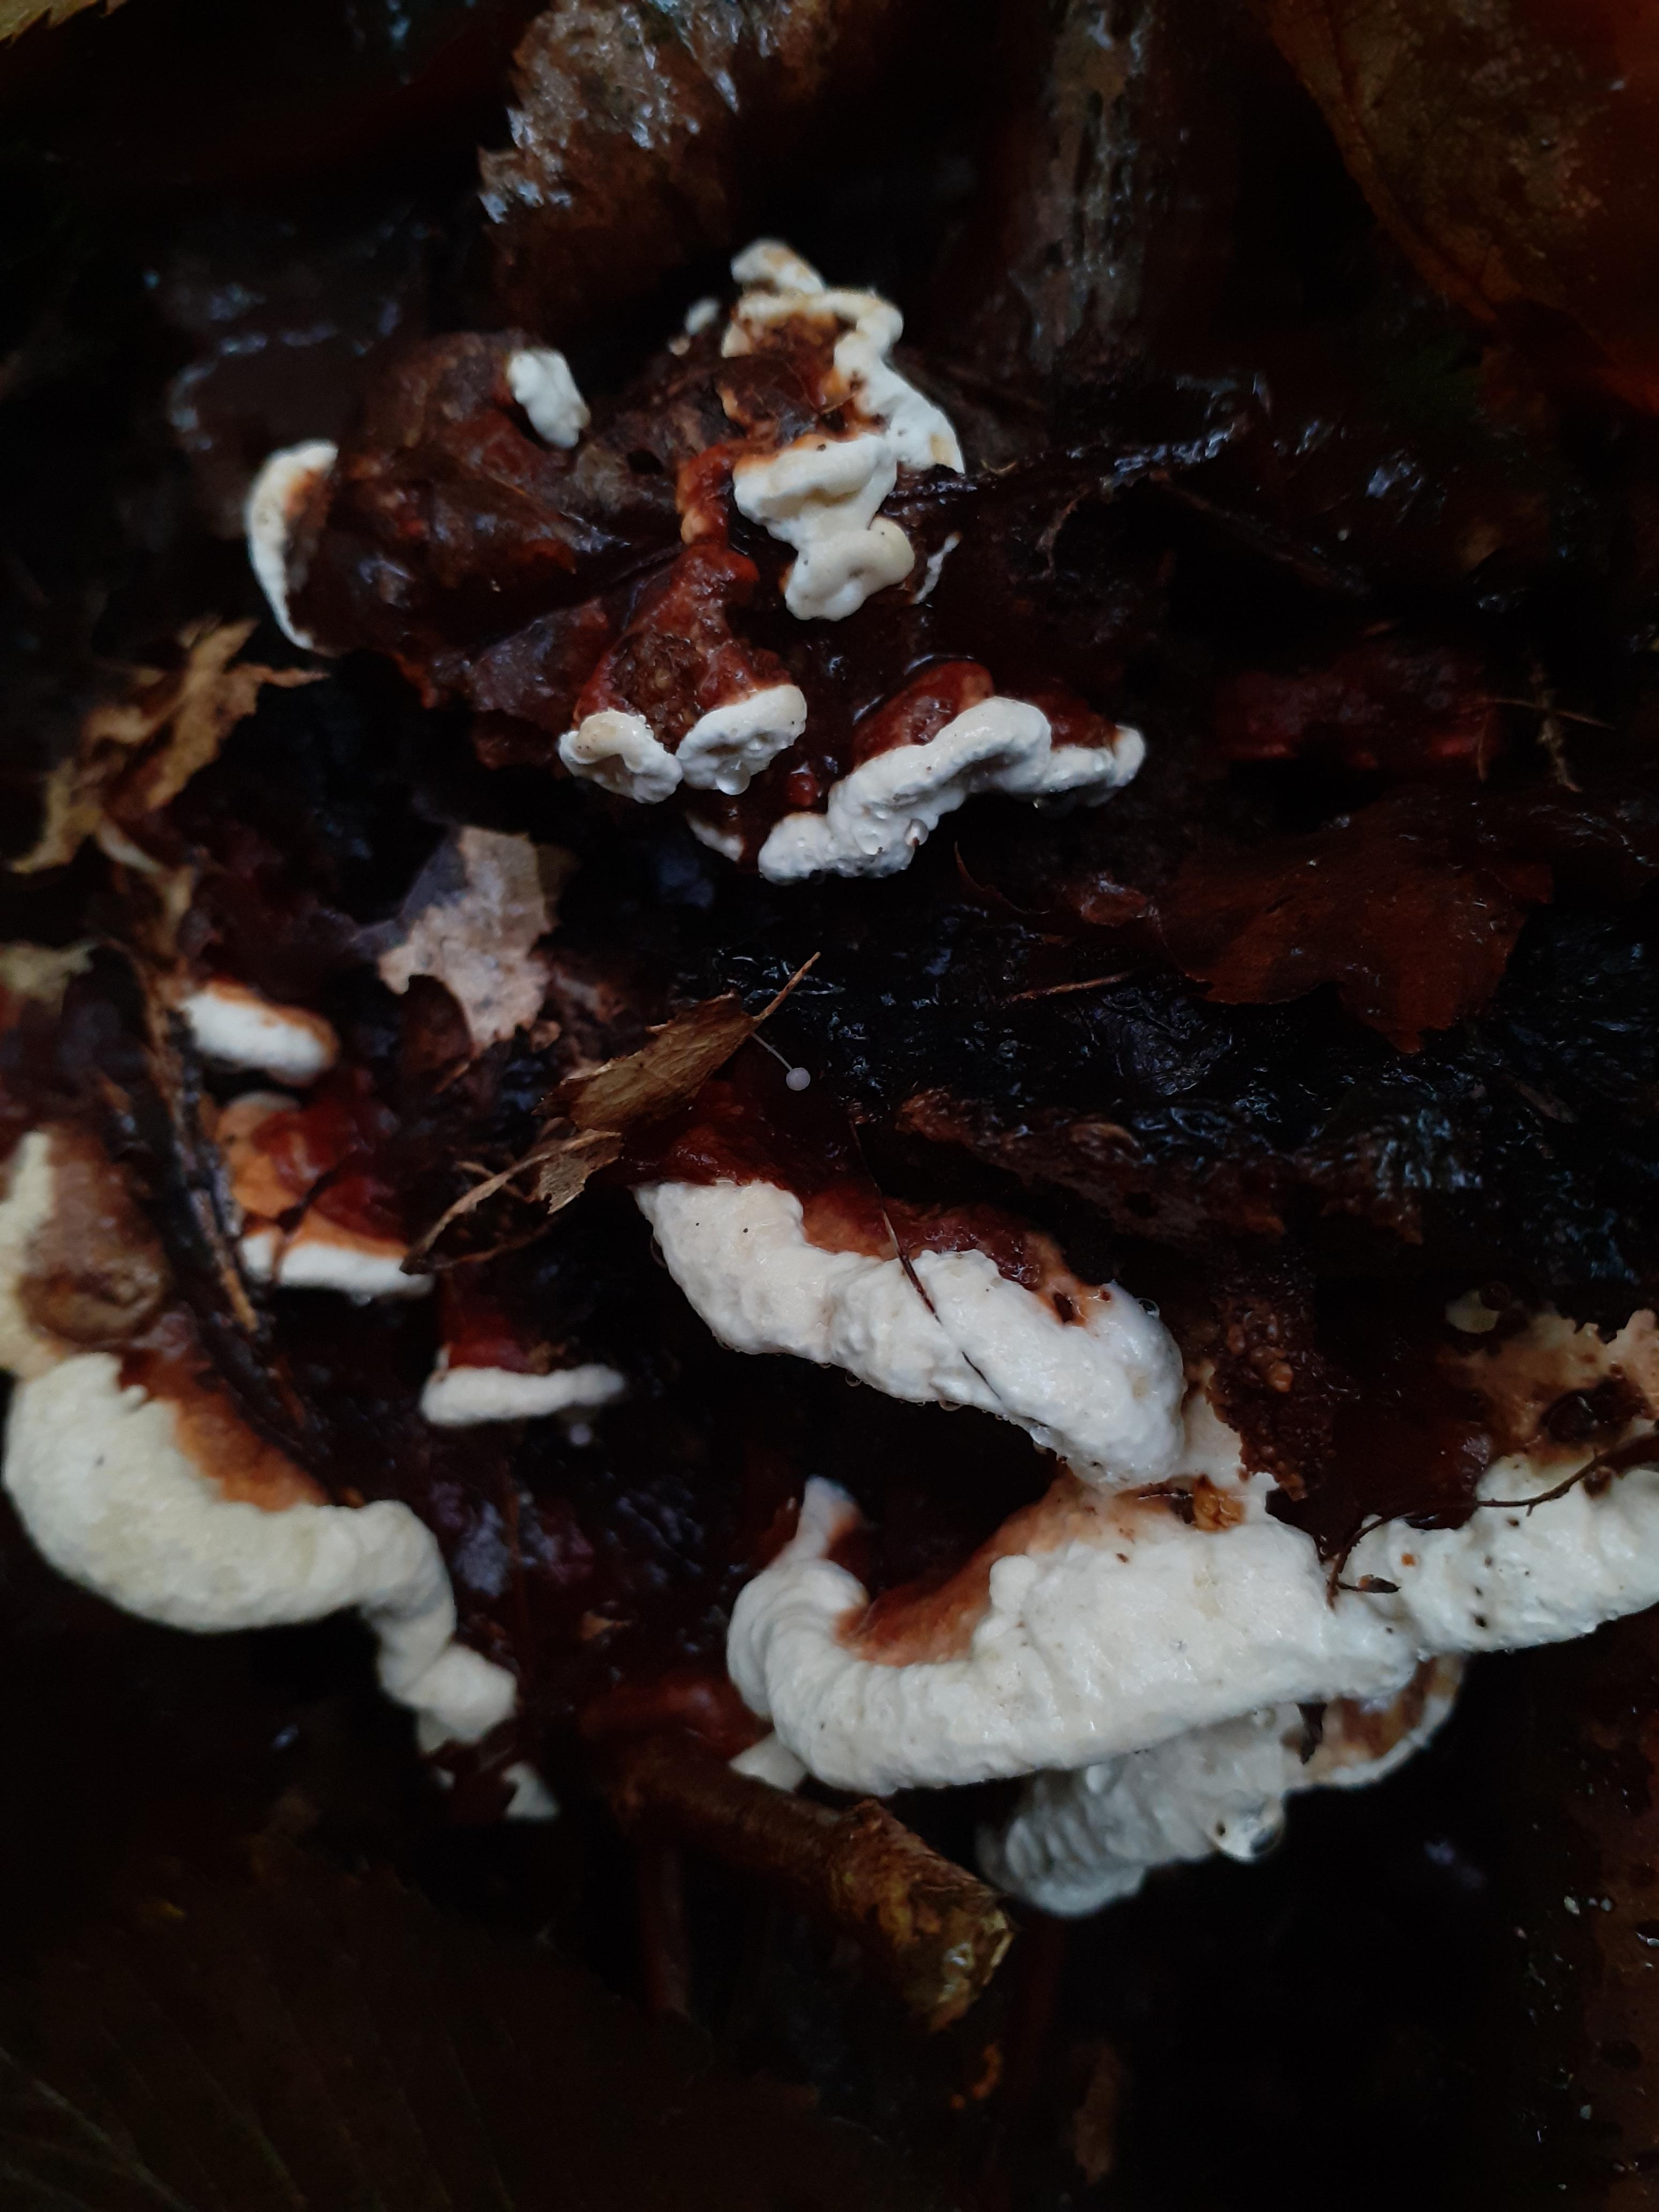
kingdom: Fungi
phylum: Basidiomycota
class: Agaricomycetes
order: Russulales
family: Bondarzewiaceae
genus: Heterobasidion
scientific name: Heterobasidion annosum
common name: almindelig rodfordærver
